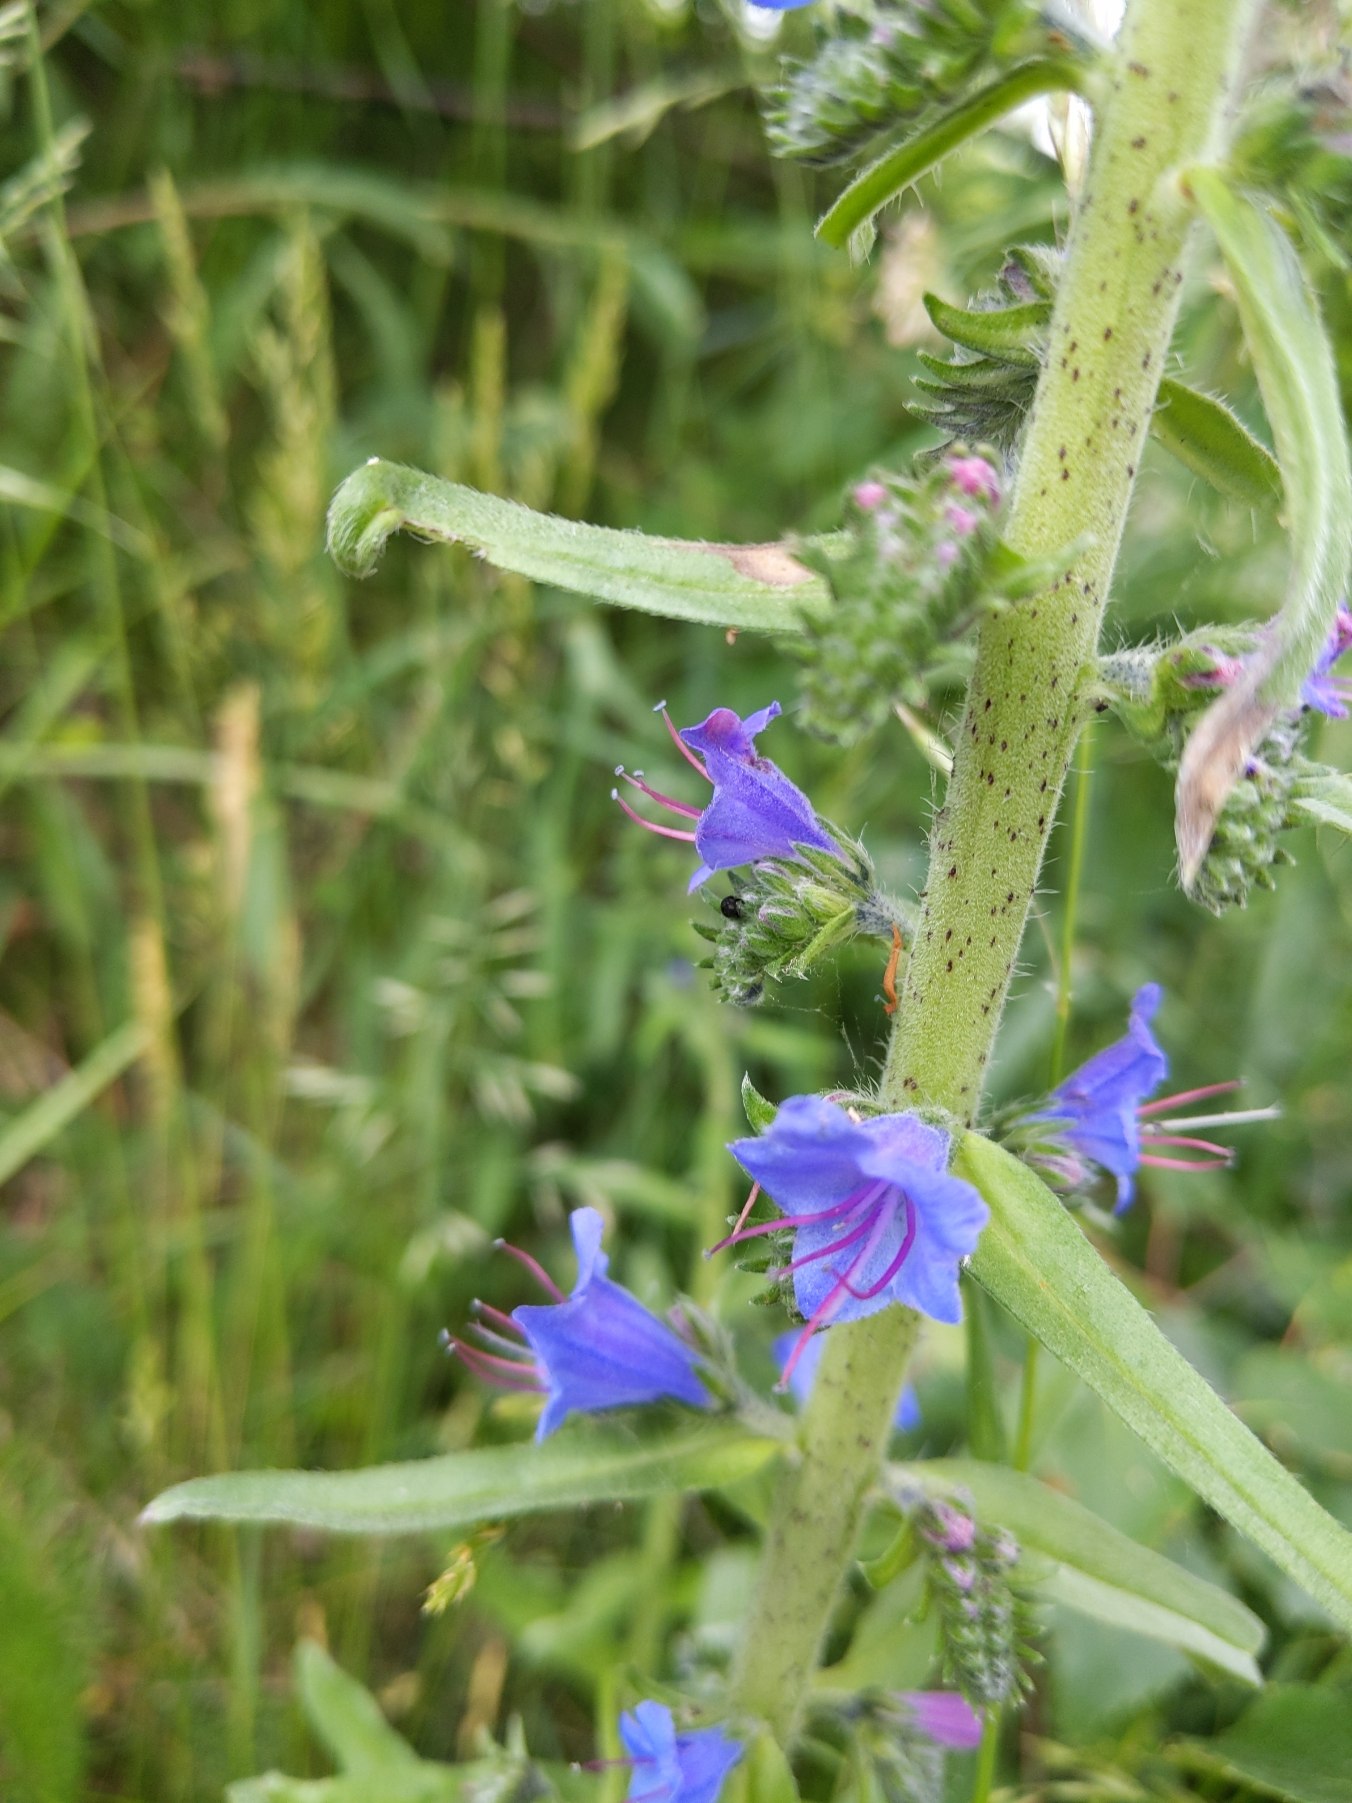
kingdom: Plantae
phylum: Tracheophyta
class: Magnoliopsida
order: Boraginales
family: Boraginaceae
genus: Echium
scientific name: Echium vulgare
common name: Slangehoved
